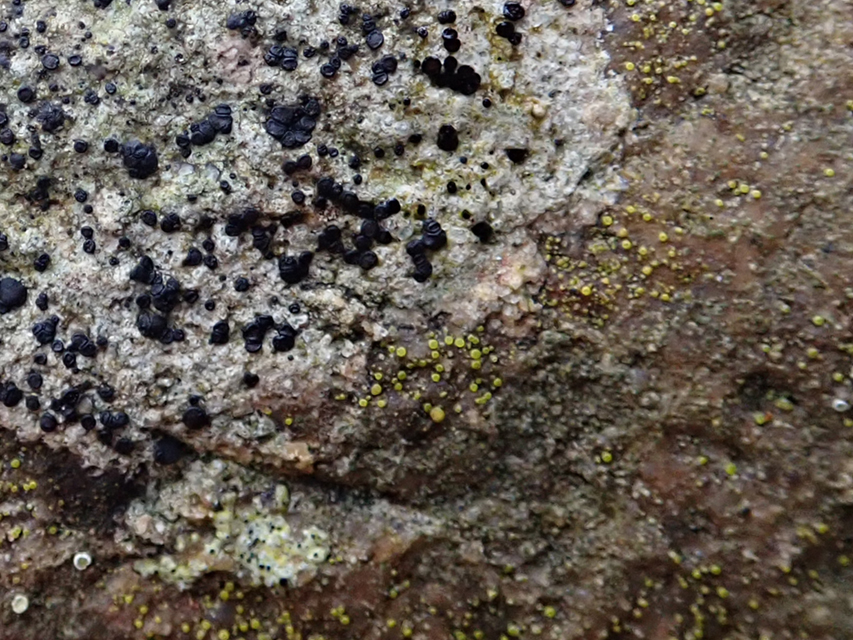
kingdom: Fungi
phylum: Ascomycota
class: Candelariomycetes
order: Candelariales
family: Candelariaceae
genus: Candelariella
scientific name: Candelariella aurella
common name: liden æggeblommelav
